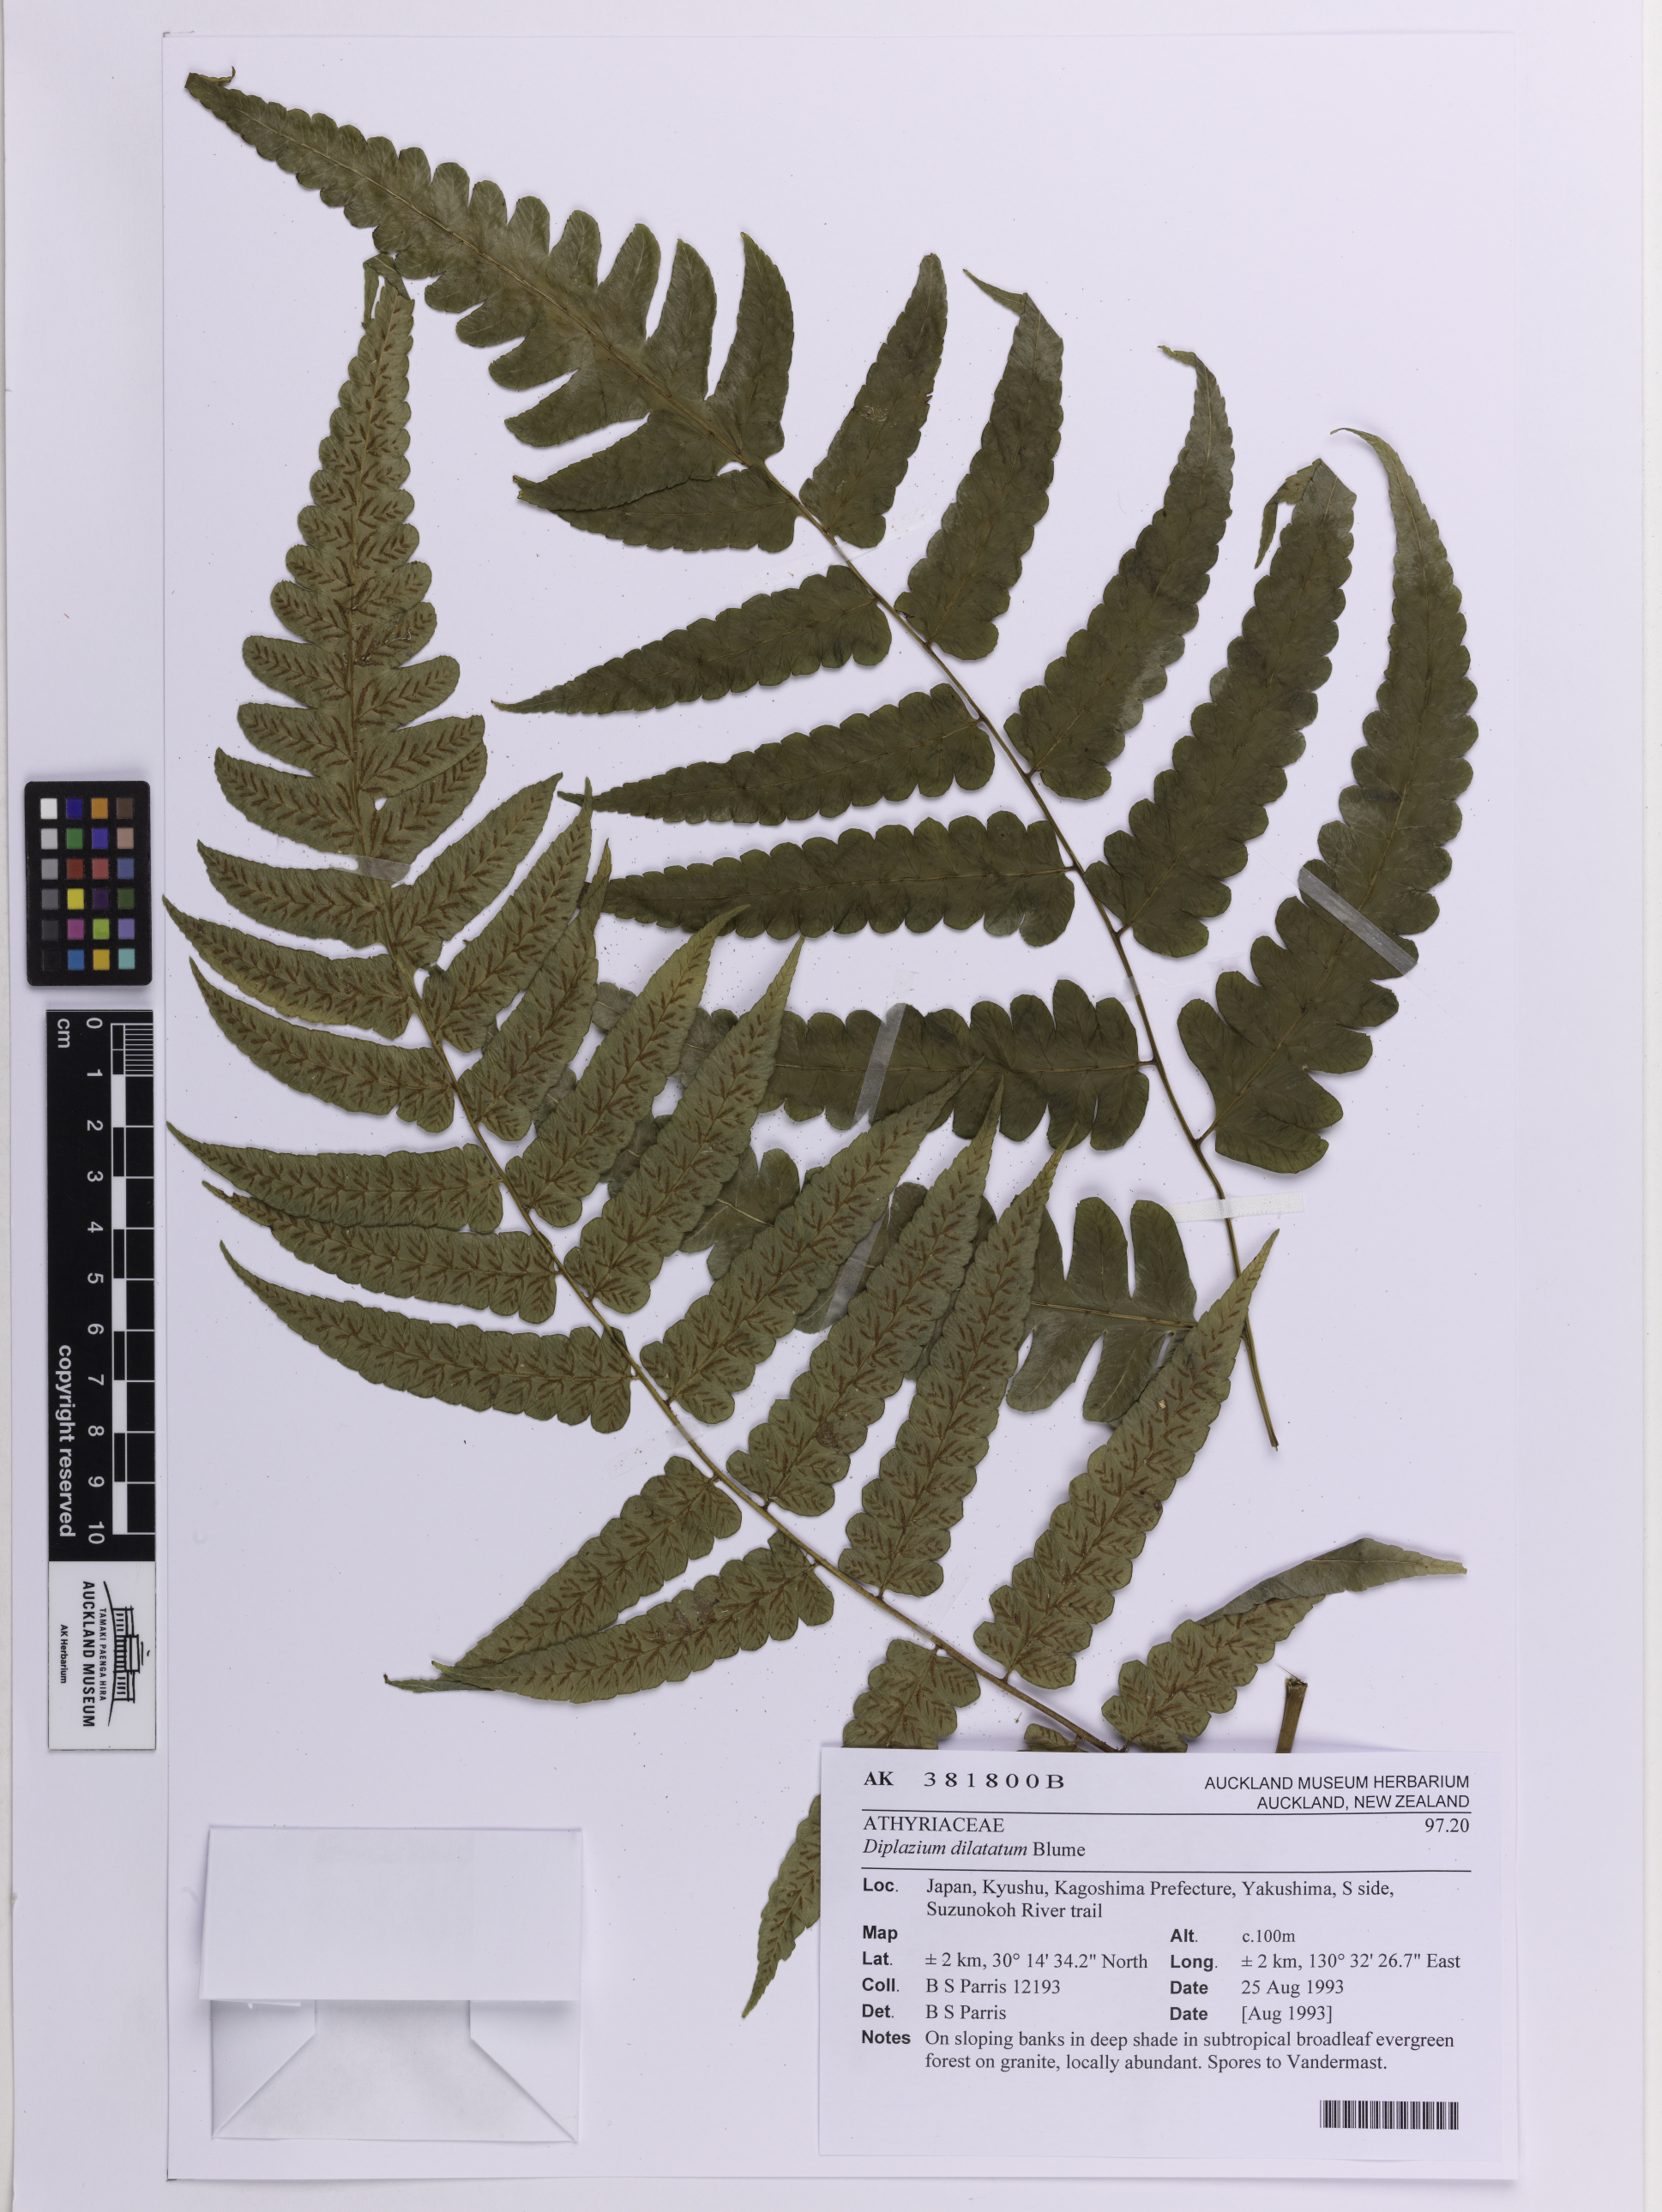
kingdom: Plantae
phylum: Tracheophyta
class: Polypodiopsida
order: Polypodiales
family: Athyriaceae
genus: Diplazium
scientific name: Diplazium dilatatum
